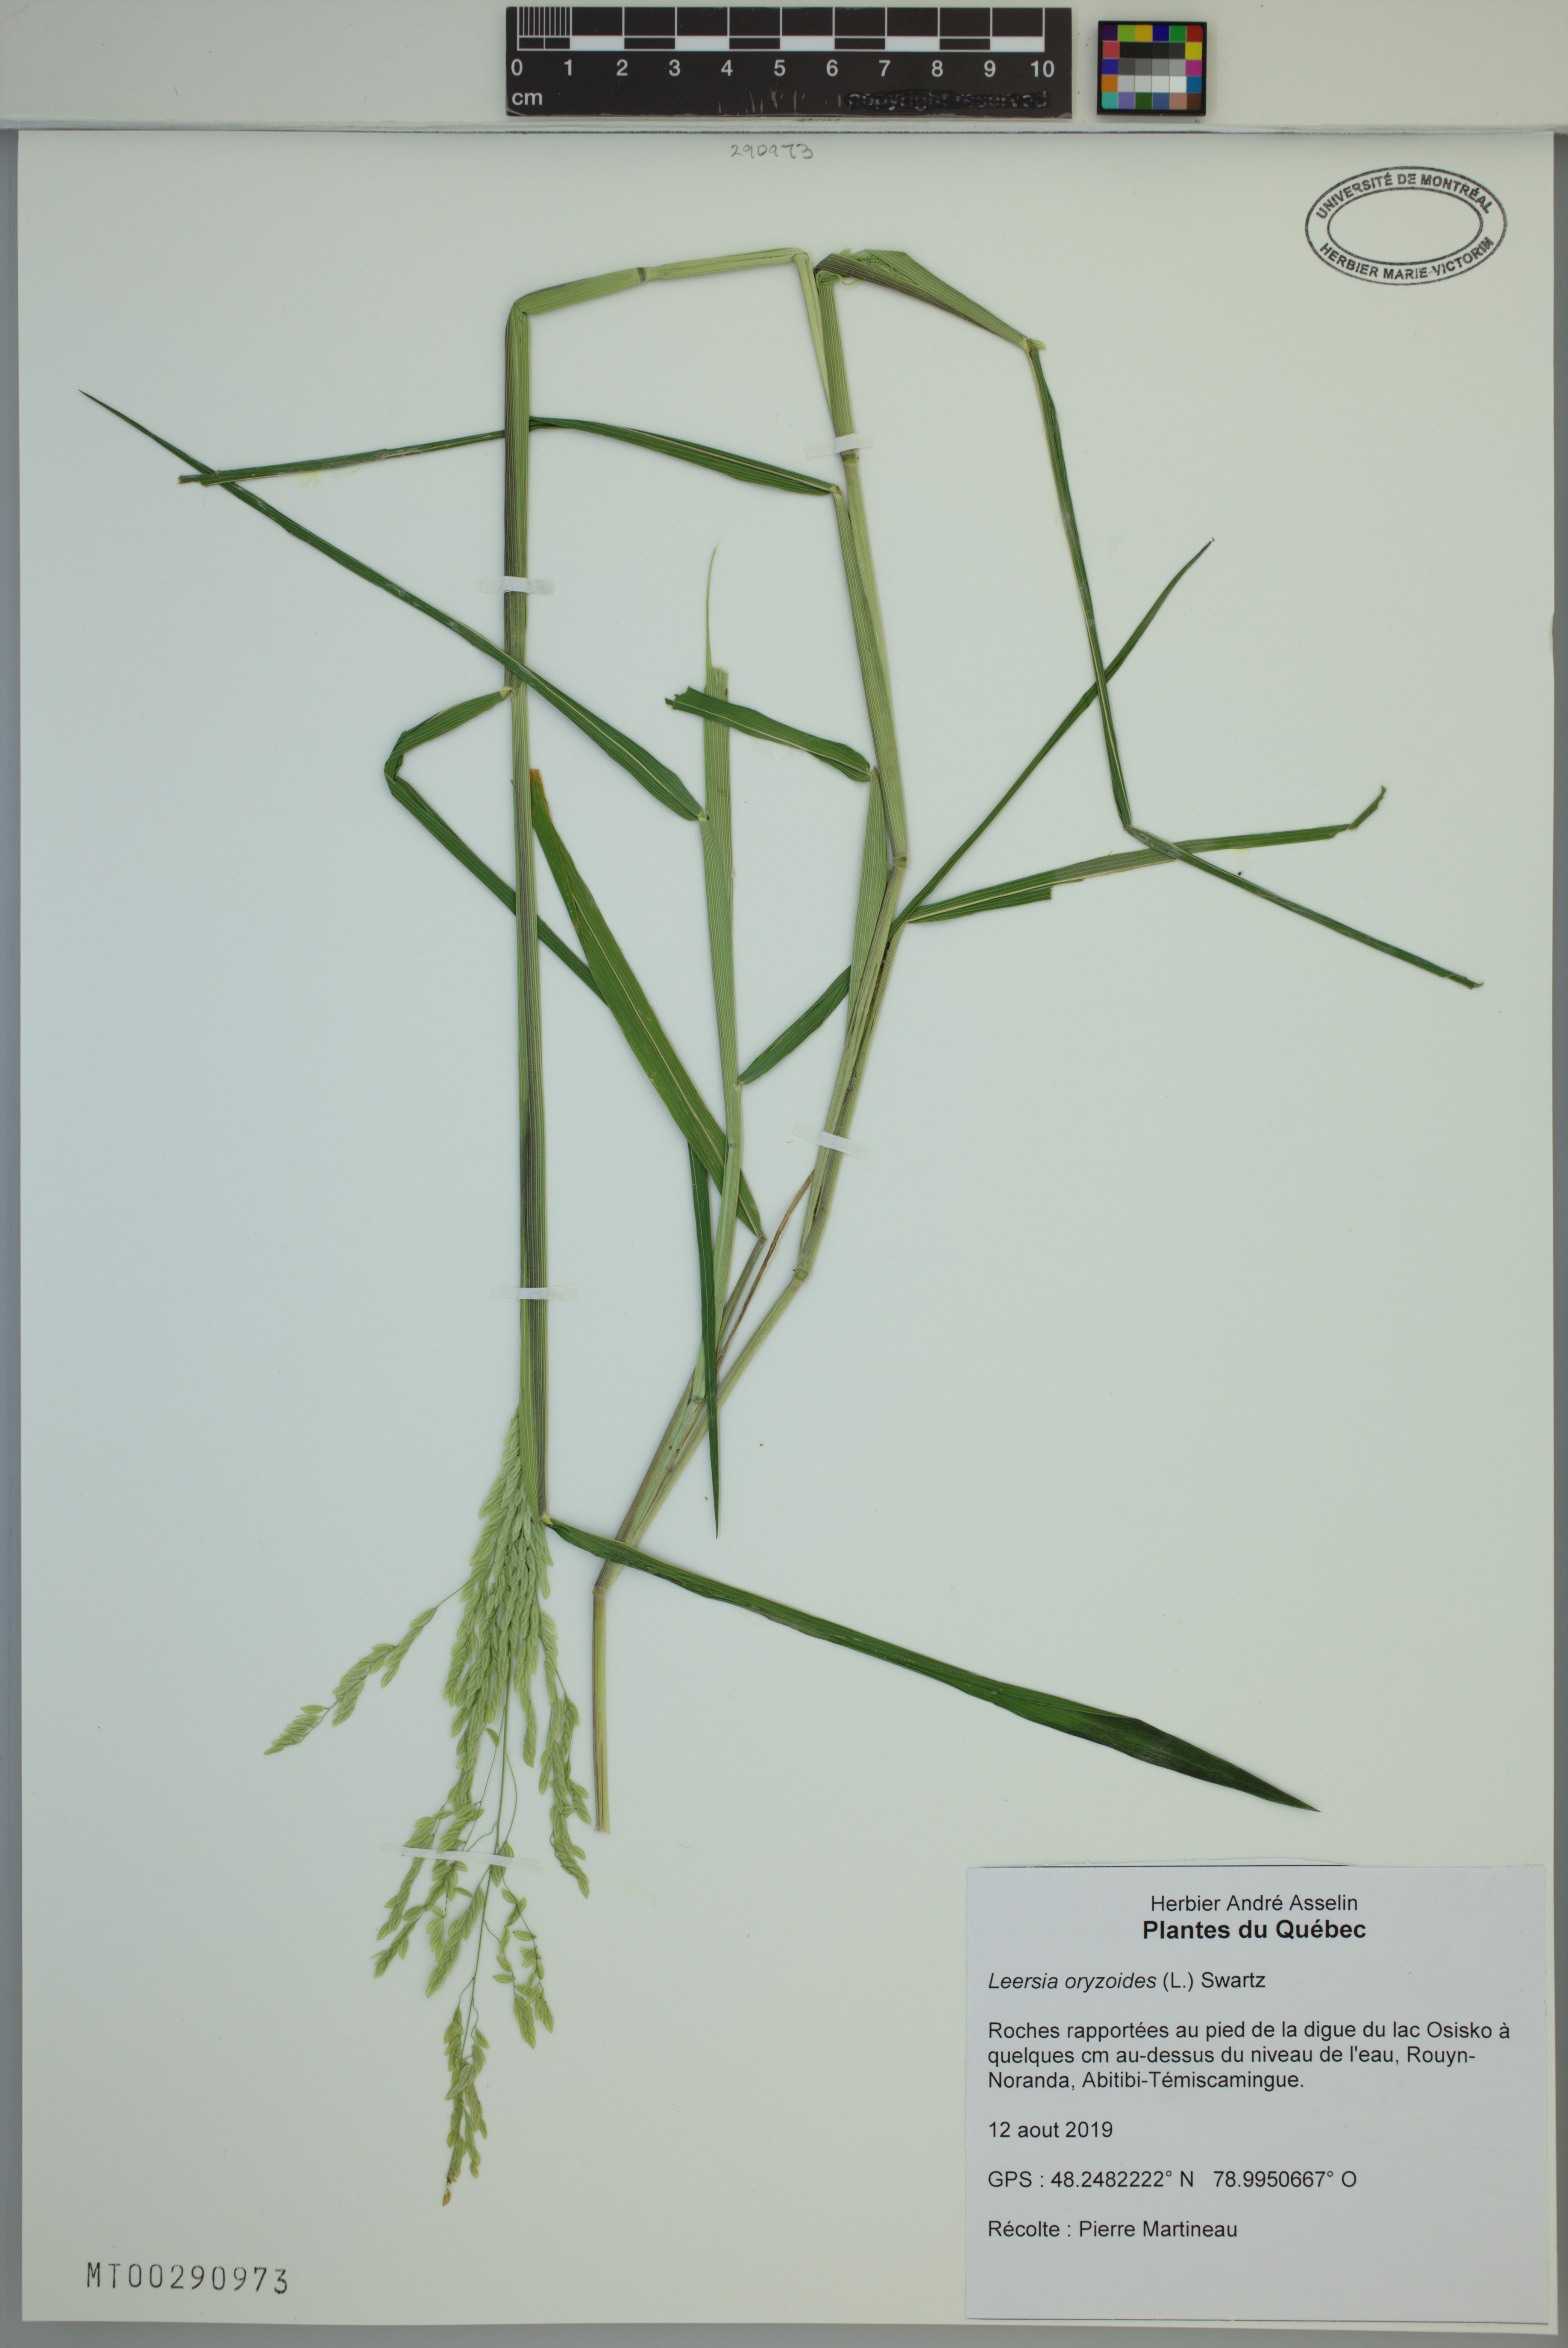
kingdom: Plantae
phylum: Tracheophyta
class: Liliopsida
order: Poales
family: Poaceae
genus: Leersia
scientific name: Leersia oryzoides
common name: Cut-grass
